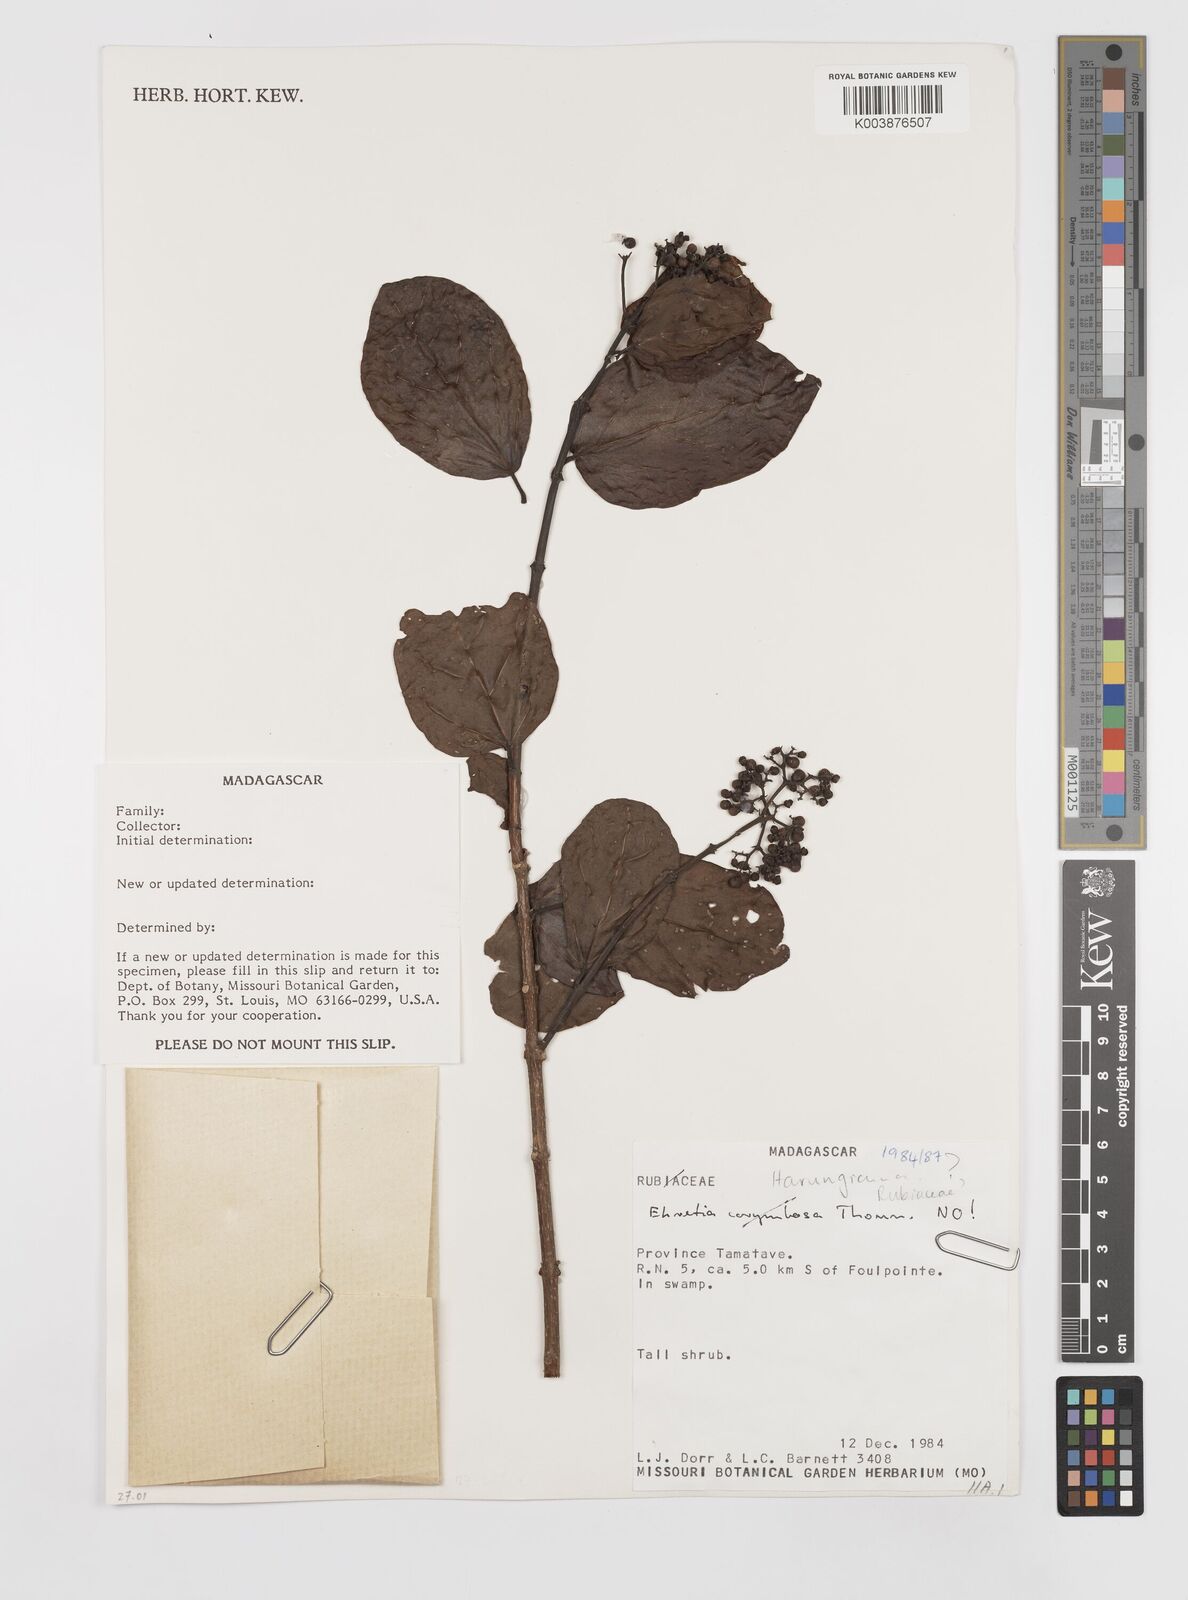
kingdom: Plantae
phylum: Tracheophyta
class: Magnoliopsida
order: Malpighiales
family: Hypericaceae
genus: Psorospermum
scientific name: Psorospermum
